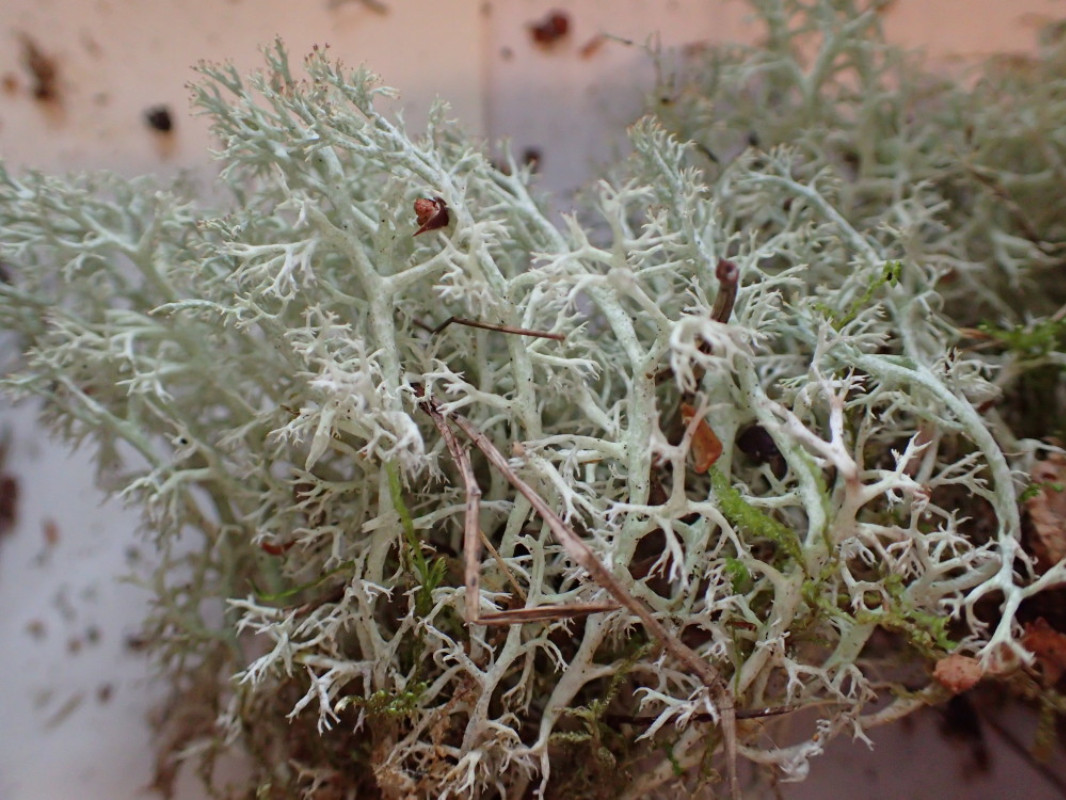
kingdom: Fungi
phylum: Ascomycota
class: Lecanoromycetes
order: Lecanorales
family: Cladoniaceae
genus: Cladonia
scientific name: Cladonia arbuscula
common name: gulhvid rensdyrlav
